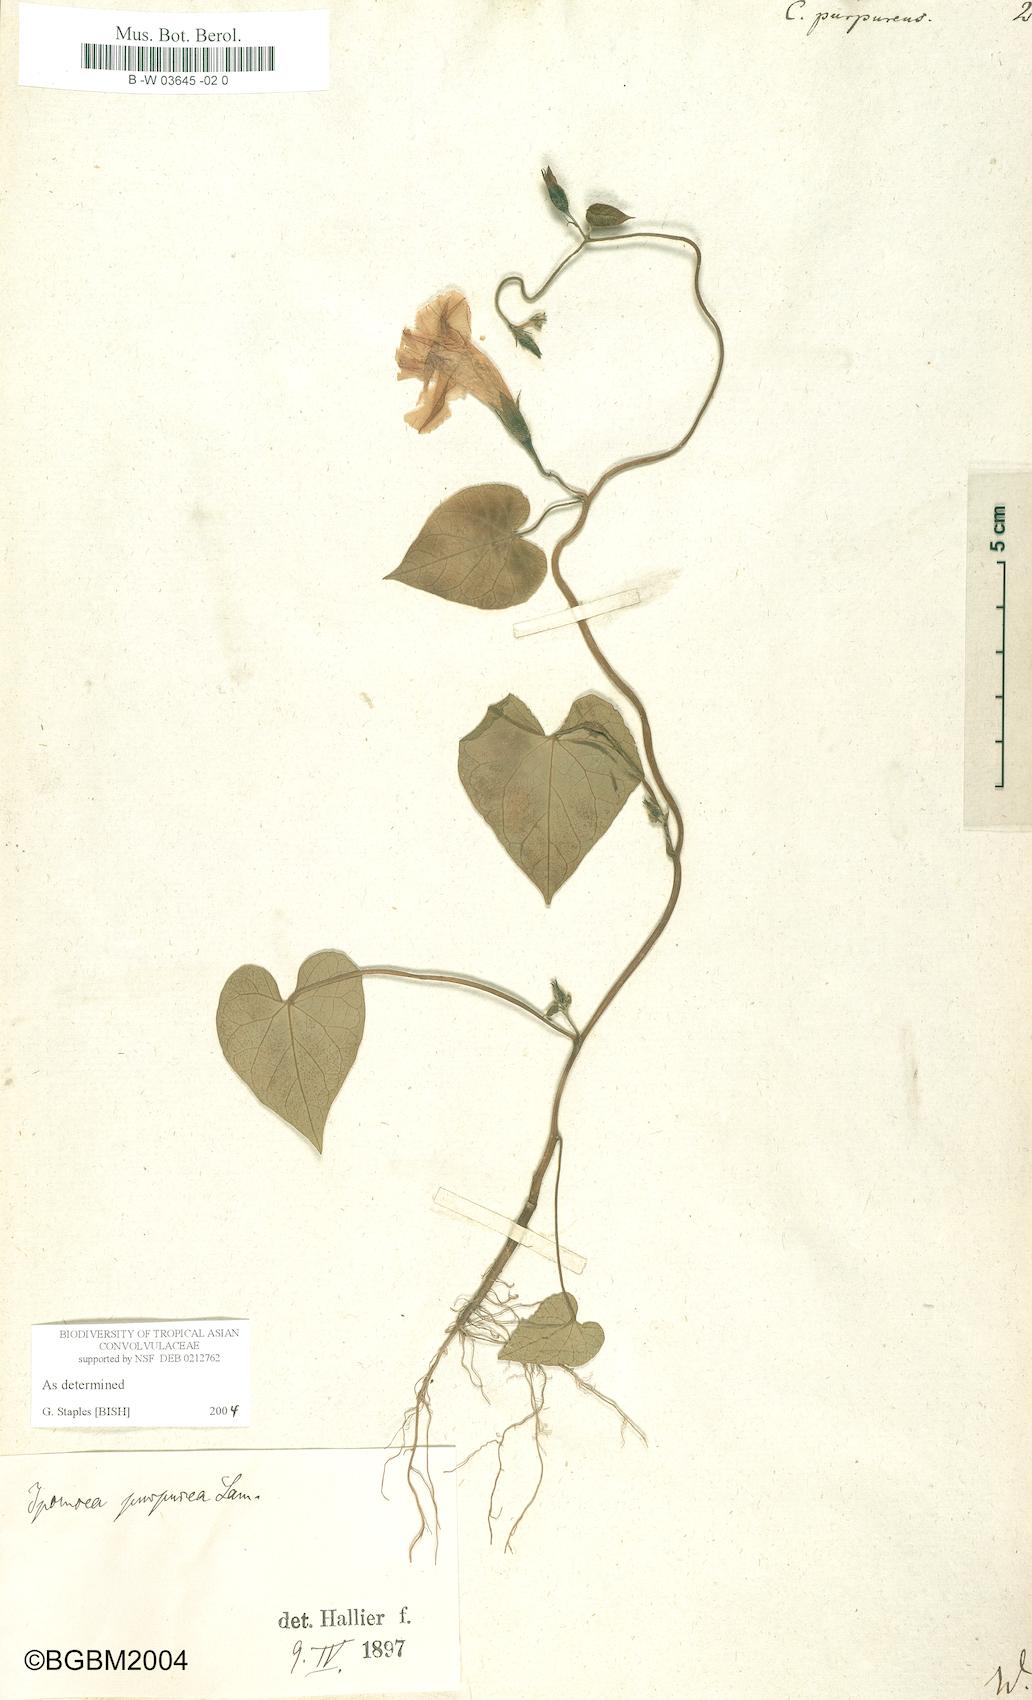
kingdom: Plantae
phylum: Tracheophyta
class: Magnoliopsida
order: Solanales
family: Convolvulaceae
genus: Ipomoea
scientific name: Ipomoea purpurea
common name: Common morning-glory
